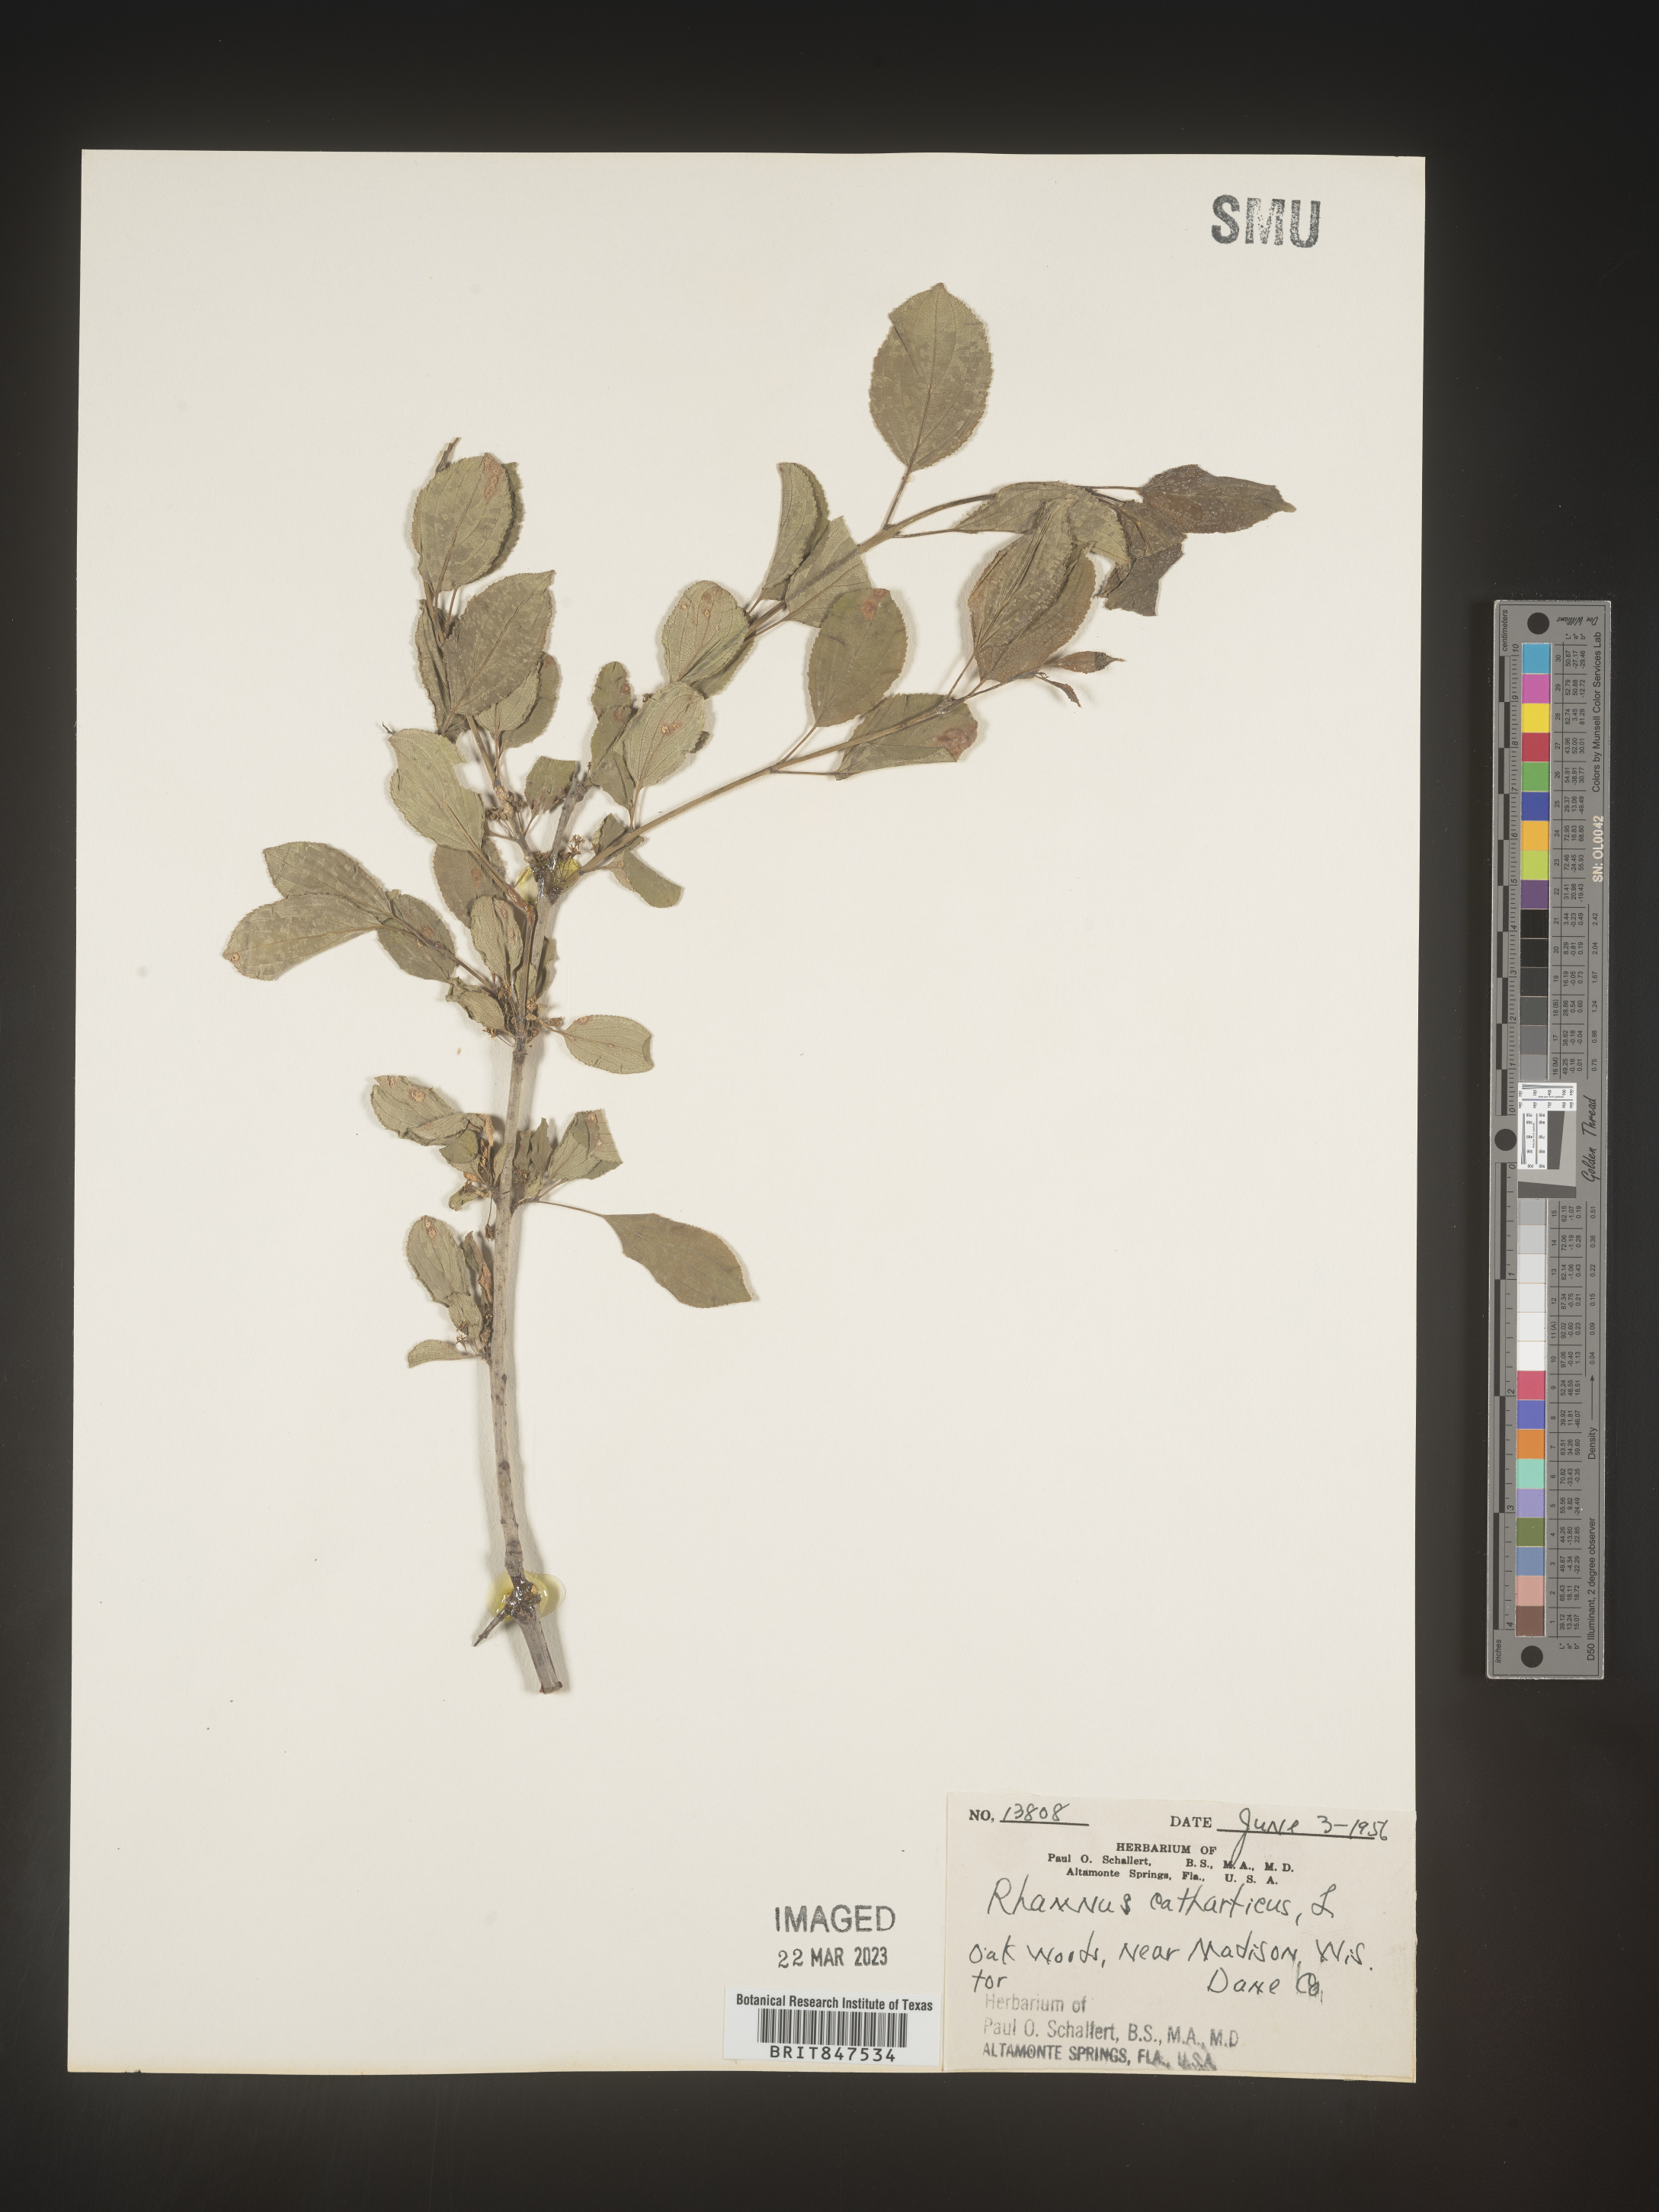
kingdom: Plantae
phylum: Tracheophyta
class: Magnoliopsida
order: Rosales
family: Rhamnaceae
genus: Rhamnus
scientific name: Rhamnus cathartica
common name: Common buckthorn
